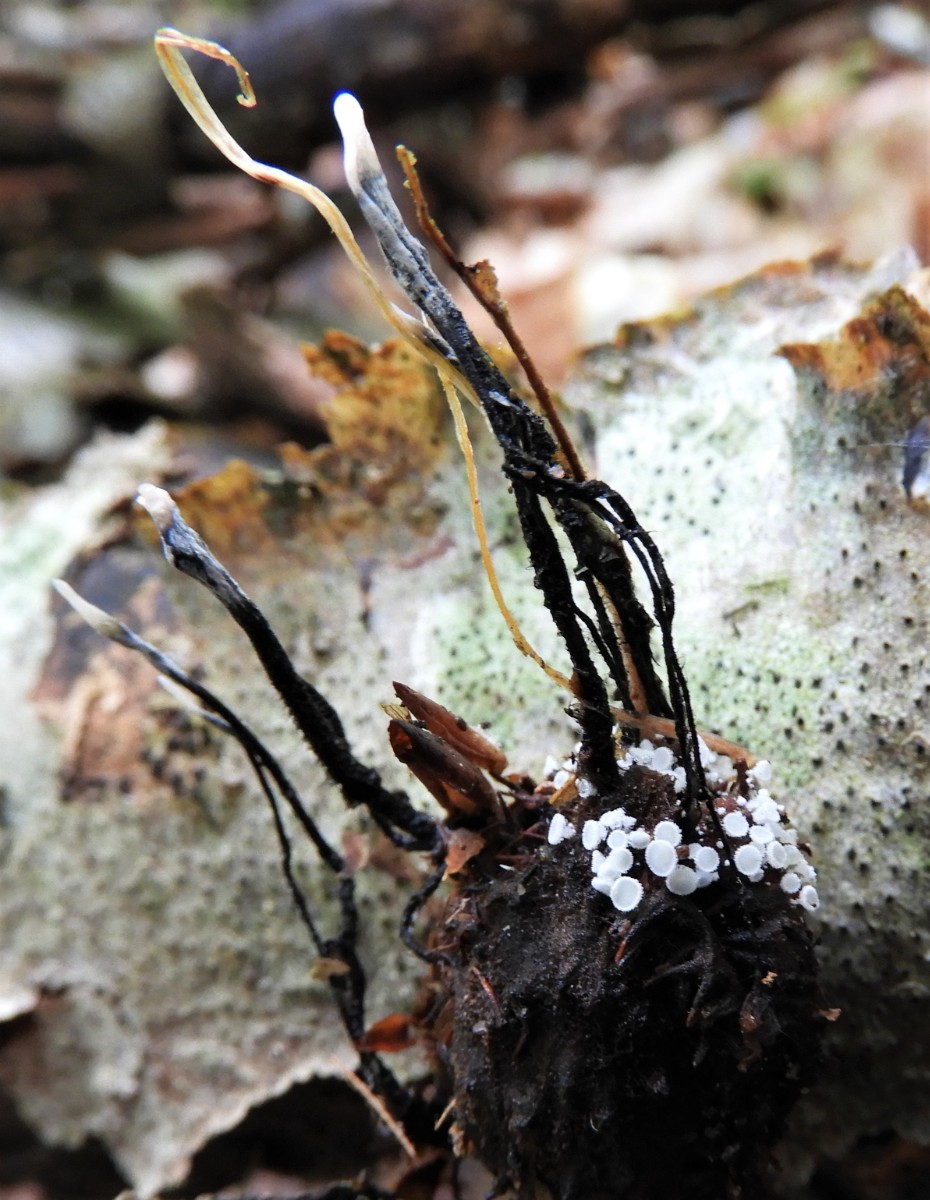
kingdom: Fungi
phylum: Ascomycota
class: Sordariomycetes
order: Xylariales
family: Xylariaceae
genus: Xylaria
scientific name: Xylaria carpophila
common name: bogskål-stødsvamp
